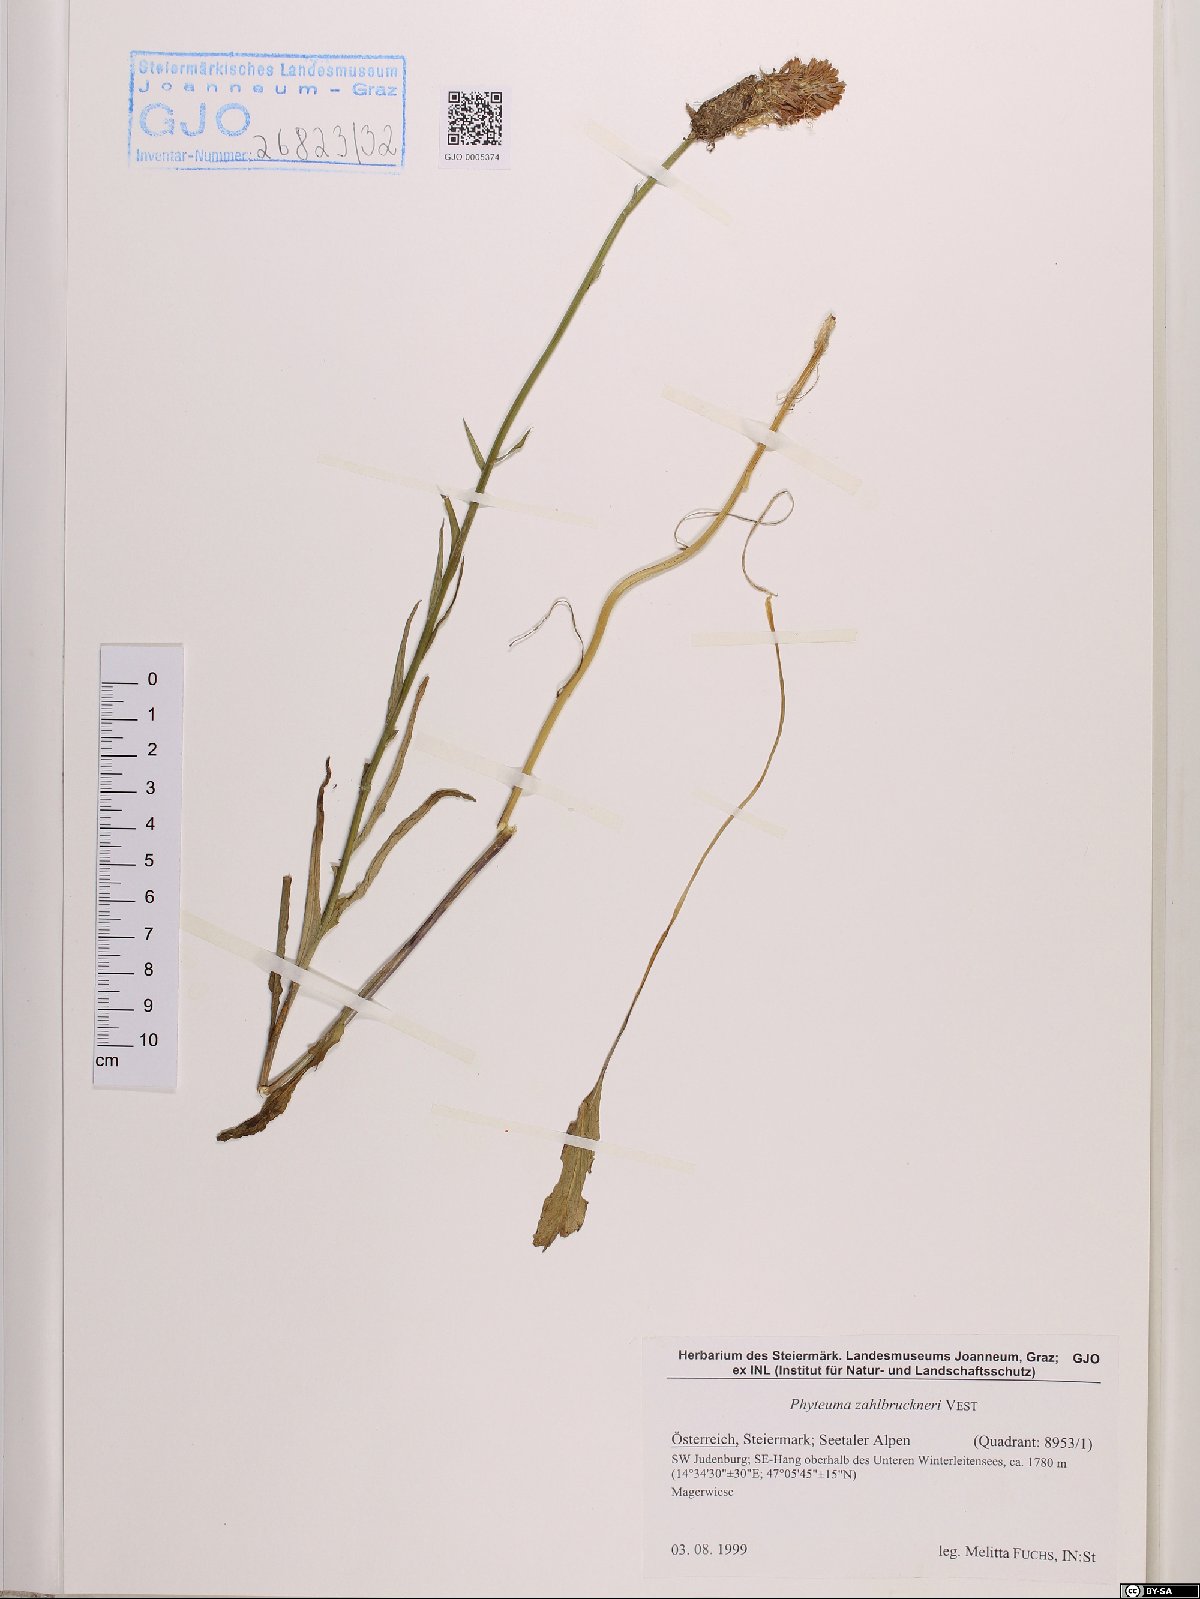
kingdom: Plantae
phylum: Tracheophyta
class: Magnoliopsida
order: Asterales
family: Campanulaceae
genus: Phyteuma
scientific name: Phyteuma persicifolium
